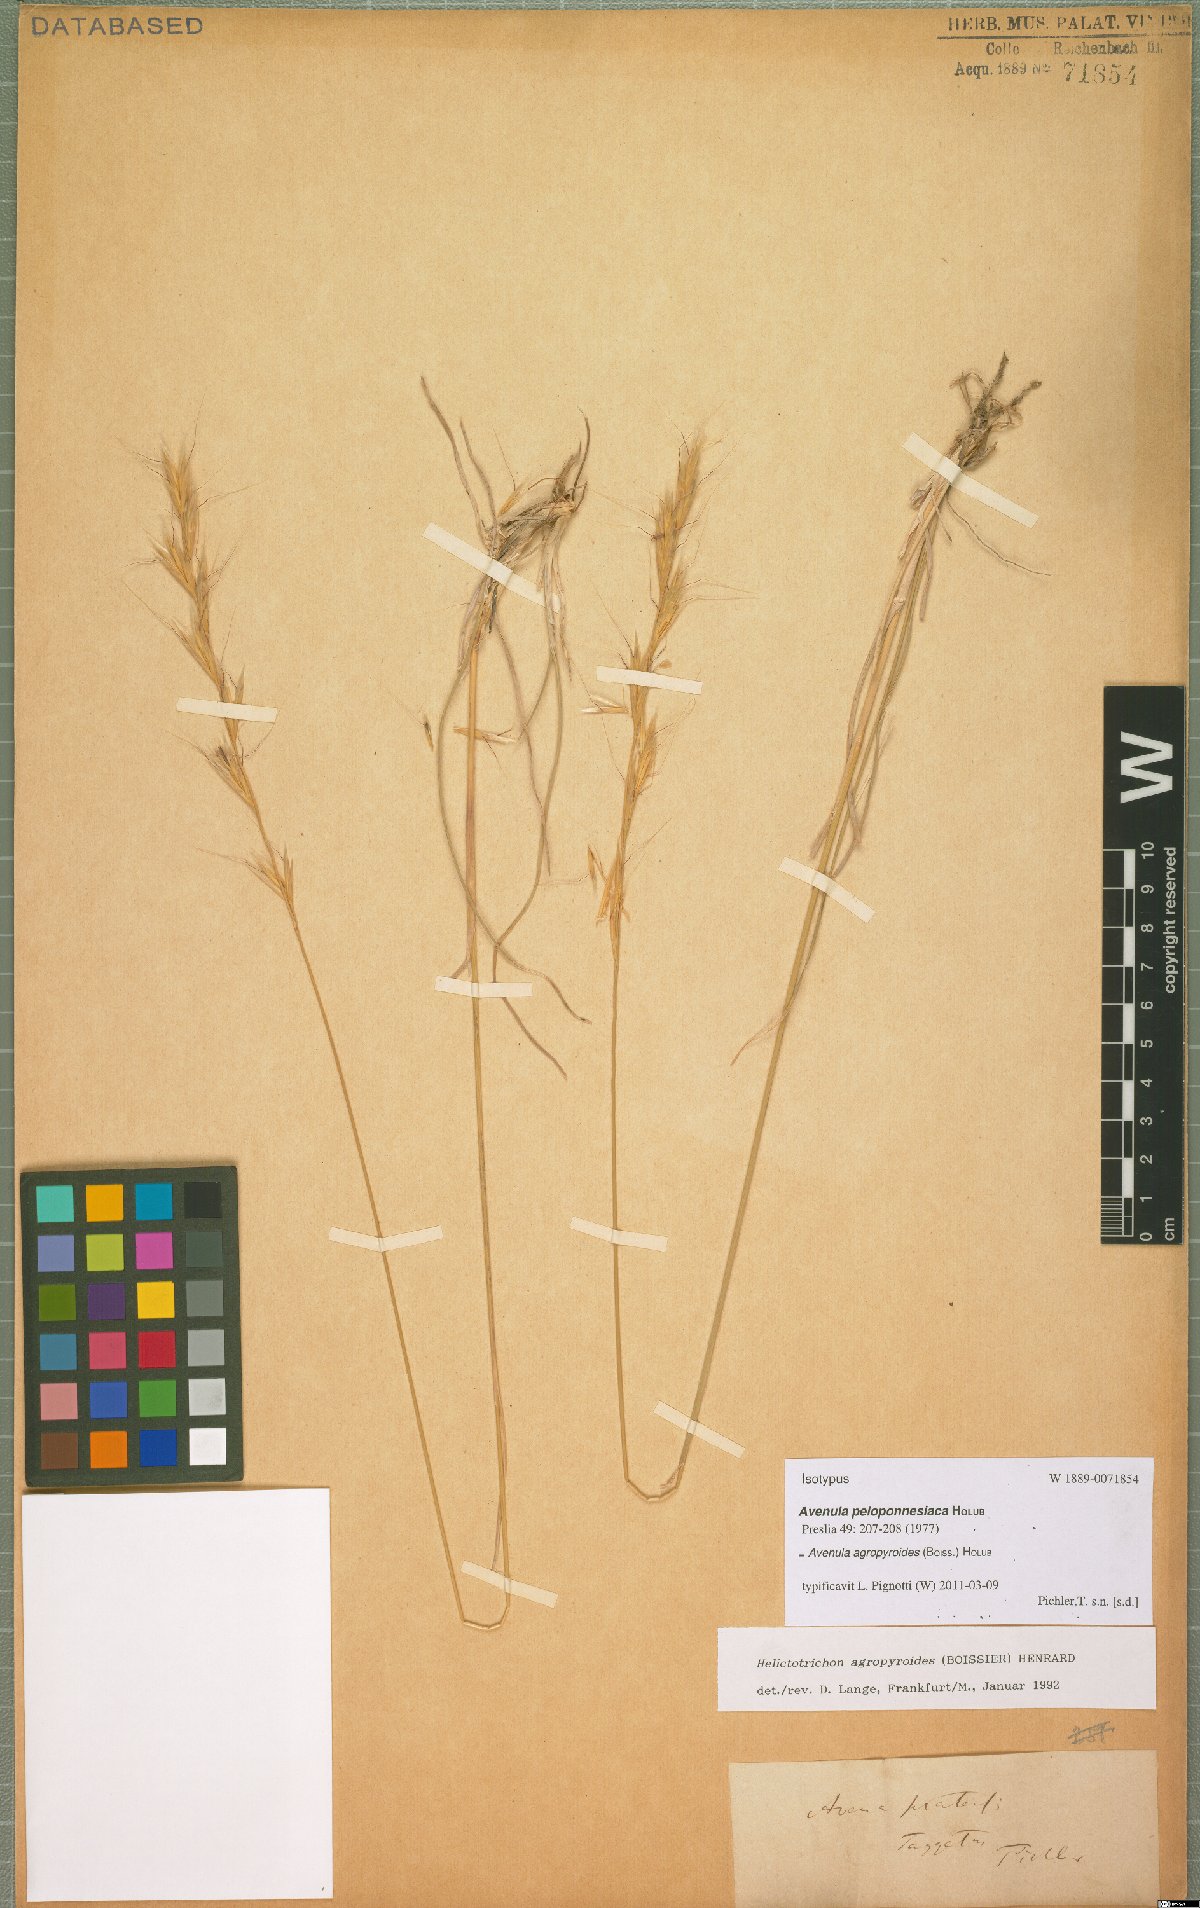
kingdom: Plantae
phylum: Tracheophyta
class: Liliopsida
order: Poales
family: Poaceae
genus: Helictochloa
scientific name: Helictochloa agropyroides
